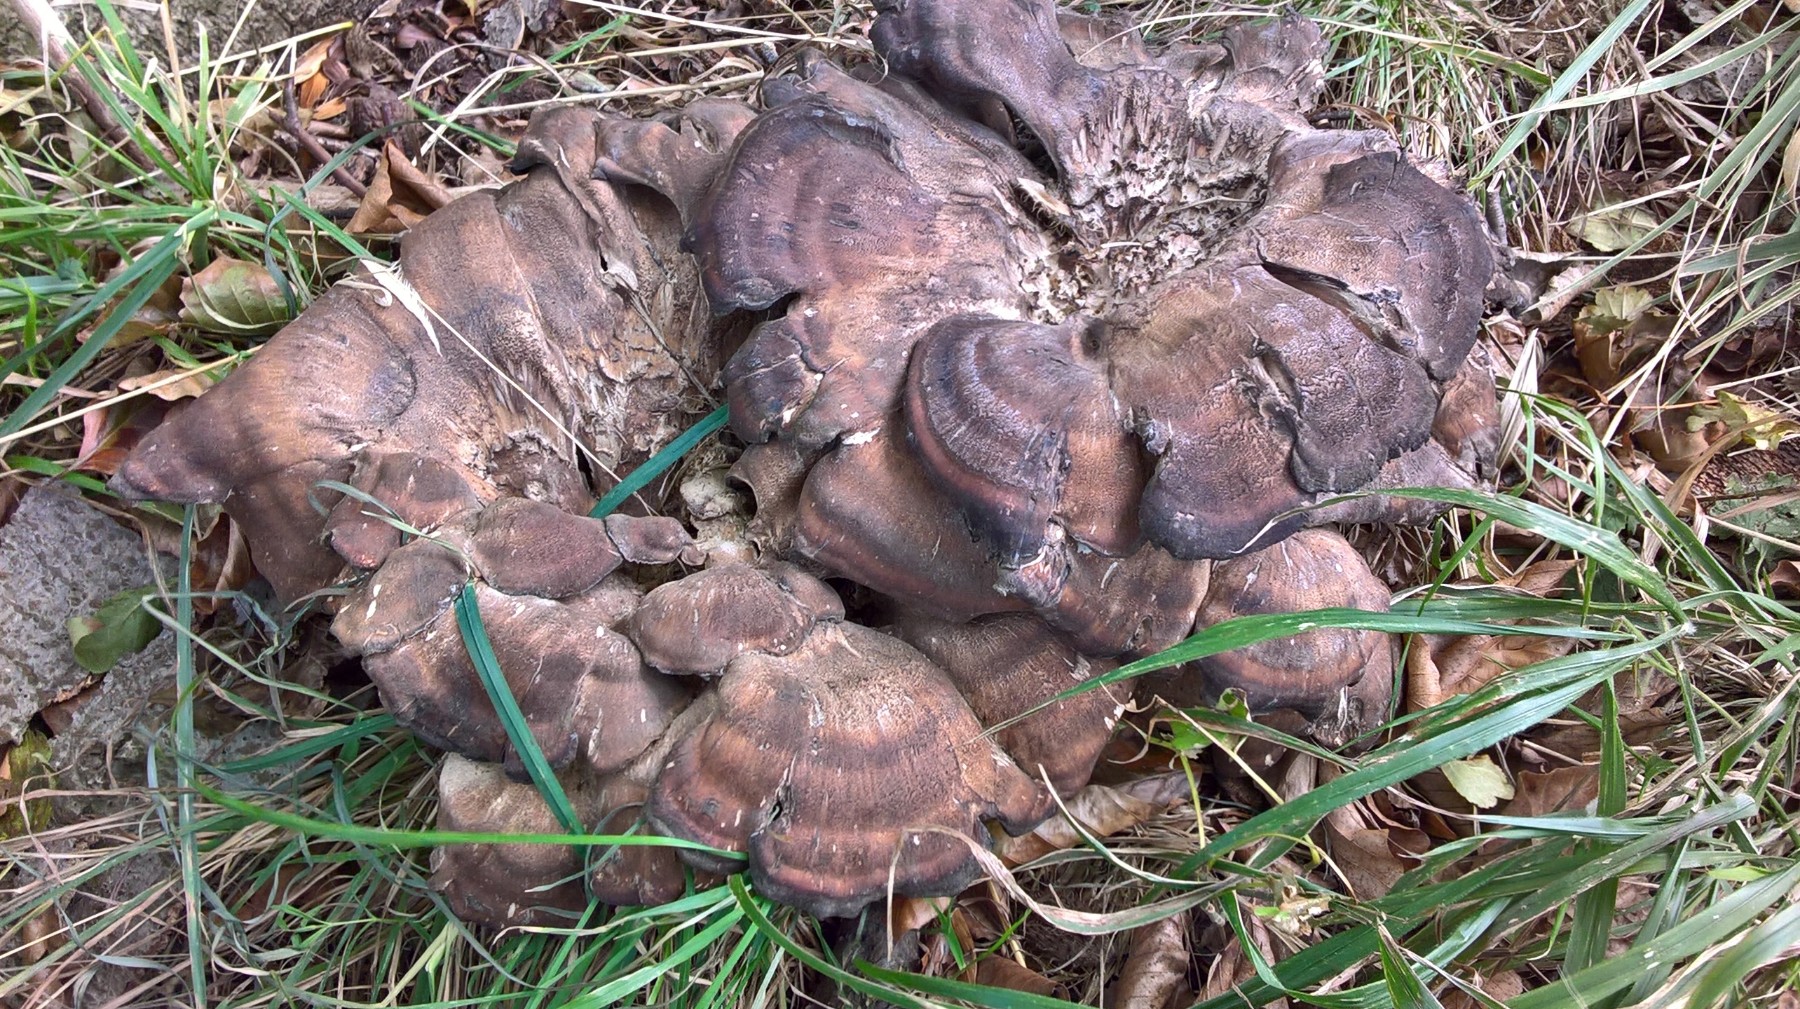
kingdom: Fungi
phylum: Basidiomycota
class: Agaricomycetes
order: Polyporales
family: Meripilaceae
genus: Meripilus
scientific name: Meripilus giganteus
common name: kæmpeporesvamp
